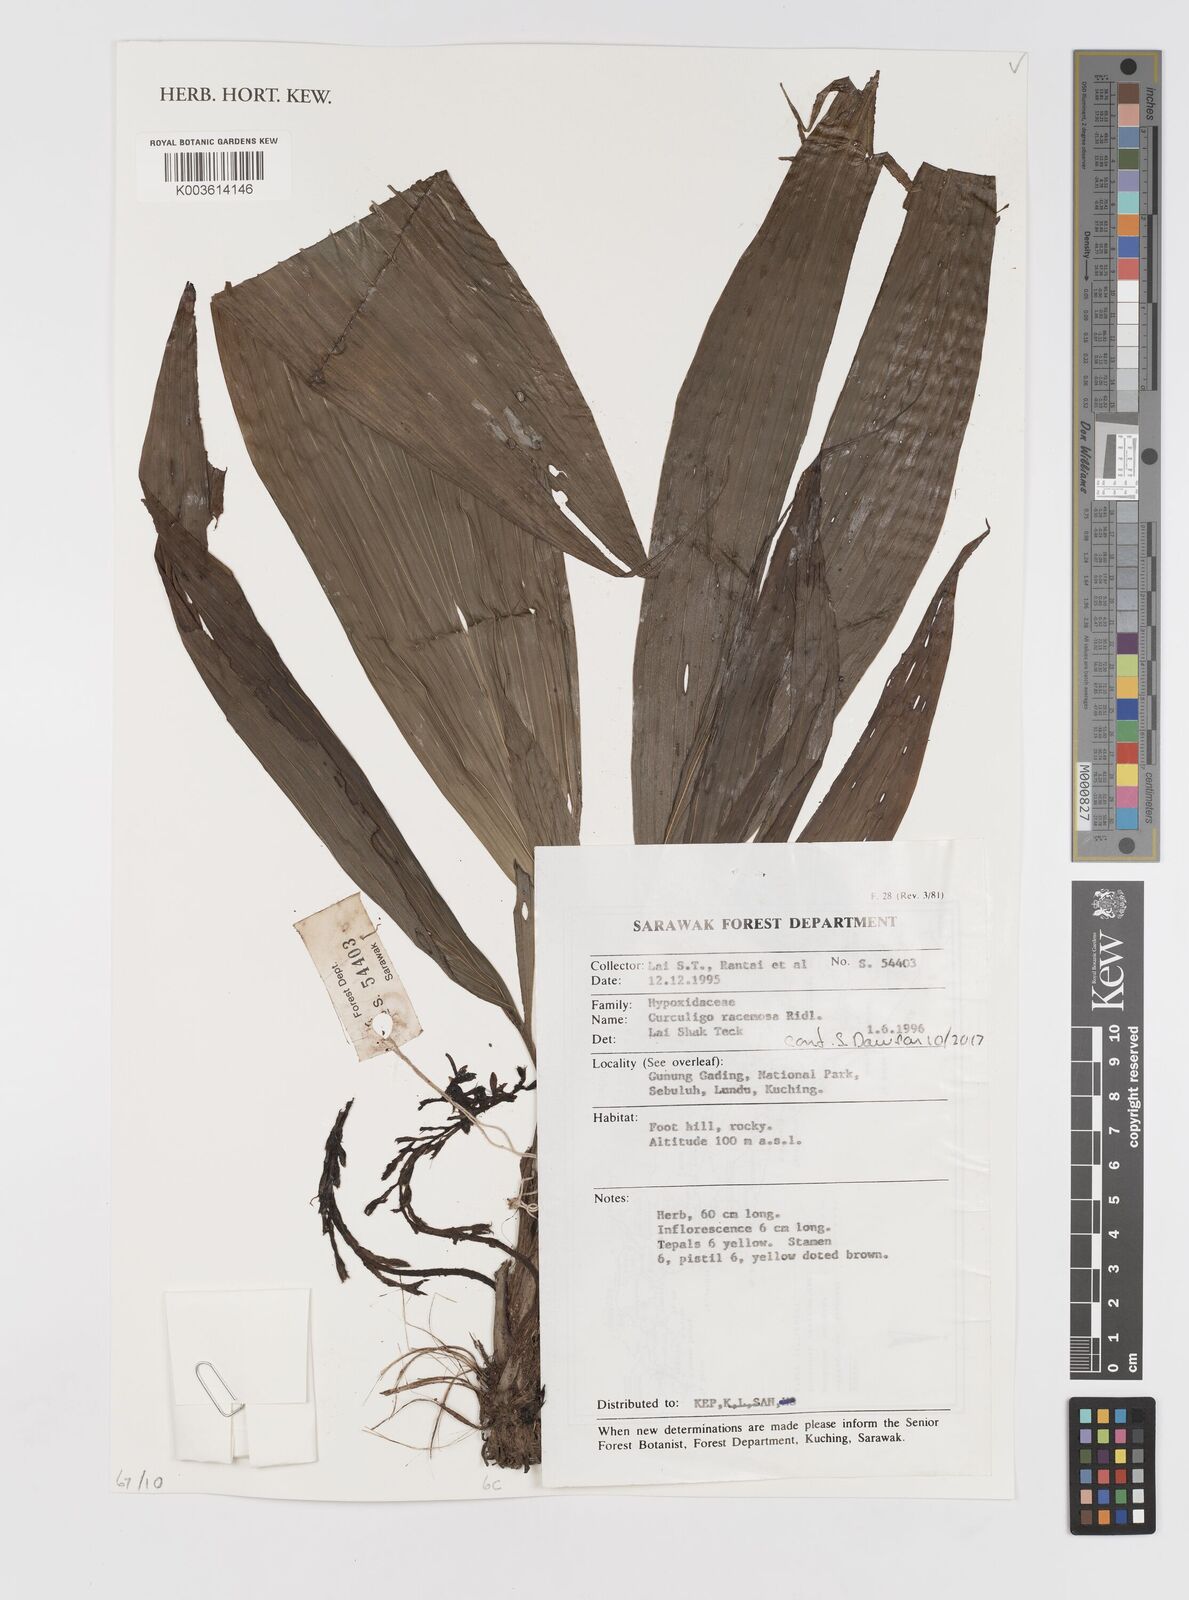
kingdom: Plantae
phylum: Tracheophyta
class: Liliopsida
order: Asparagales
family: Hypoxidaceae
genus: Curculigo
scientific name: Curculigo racemosa
